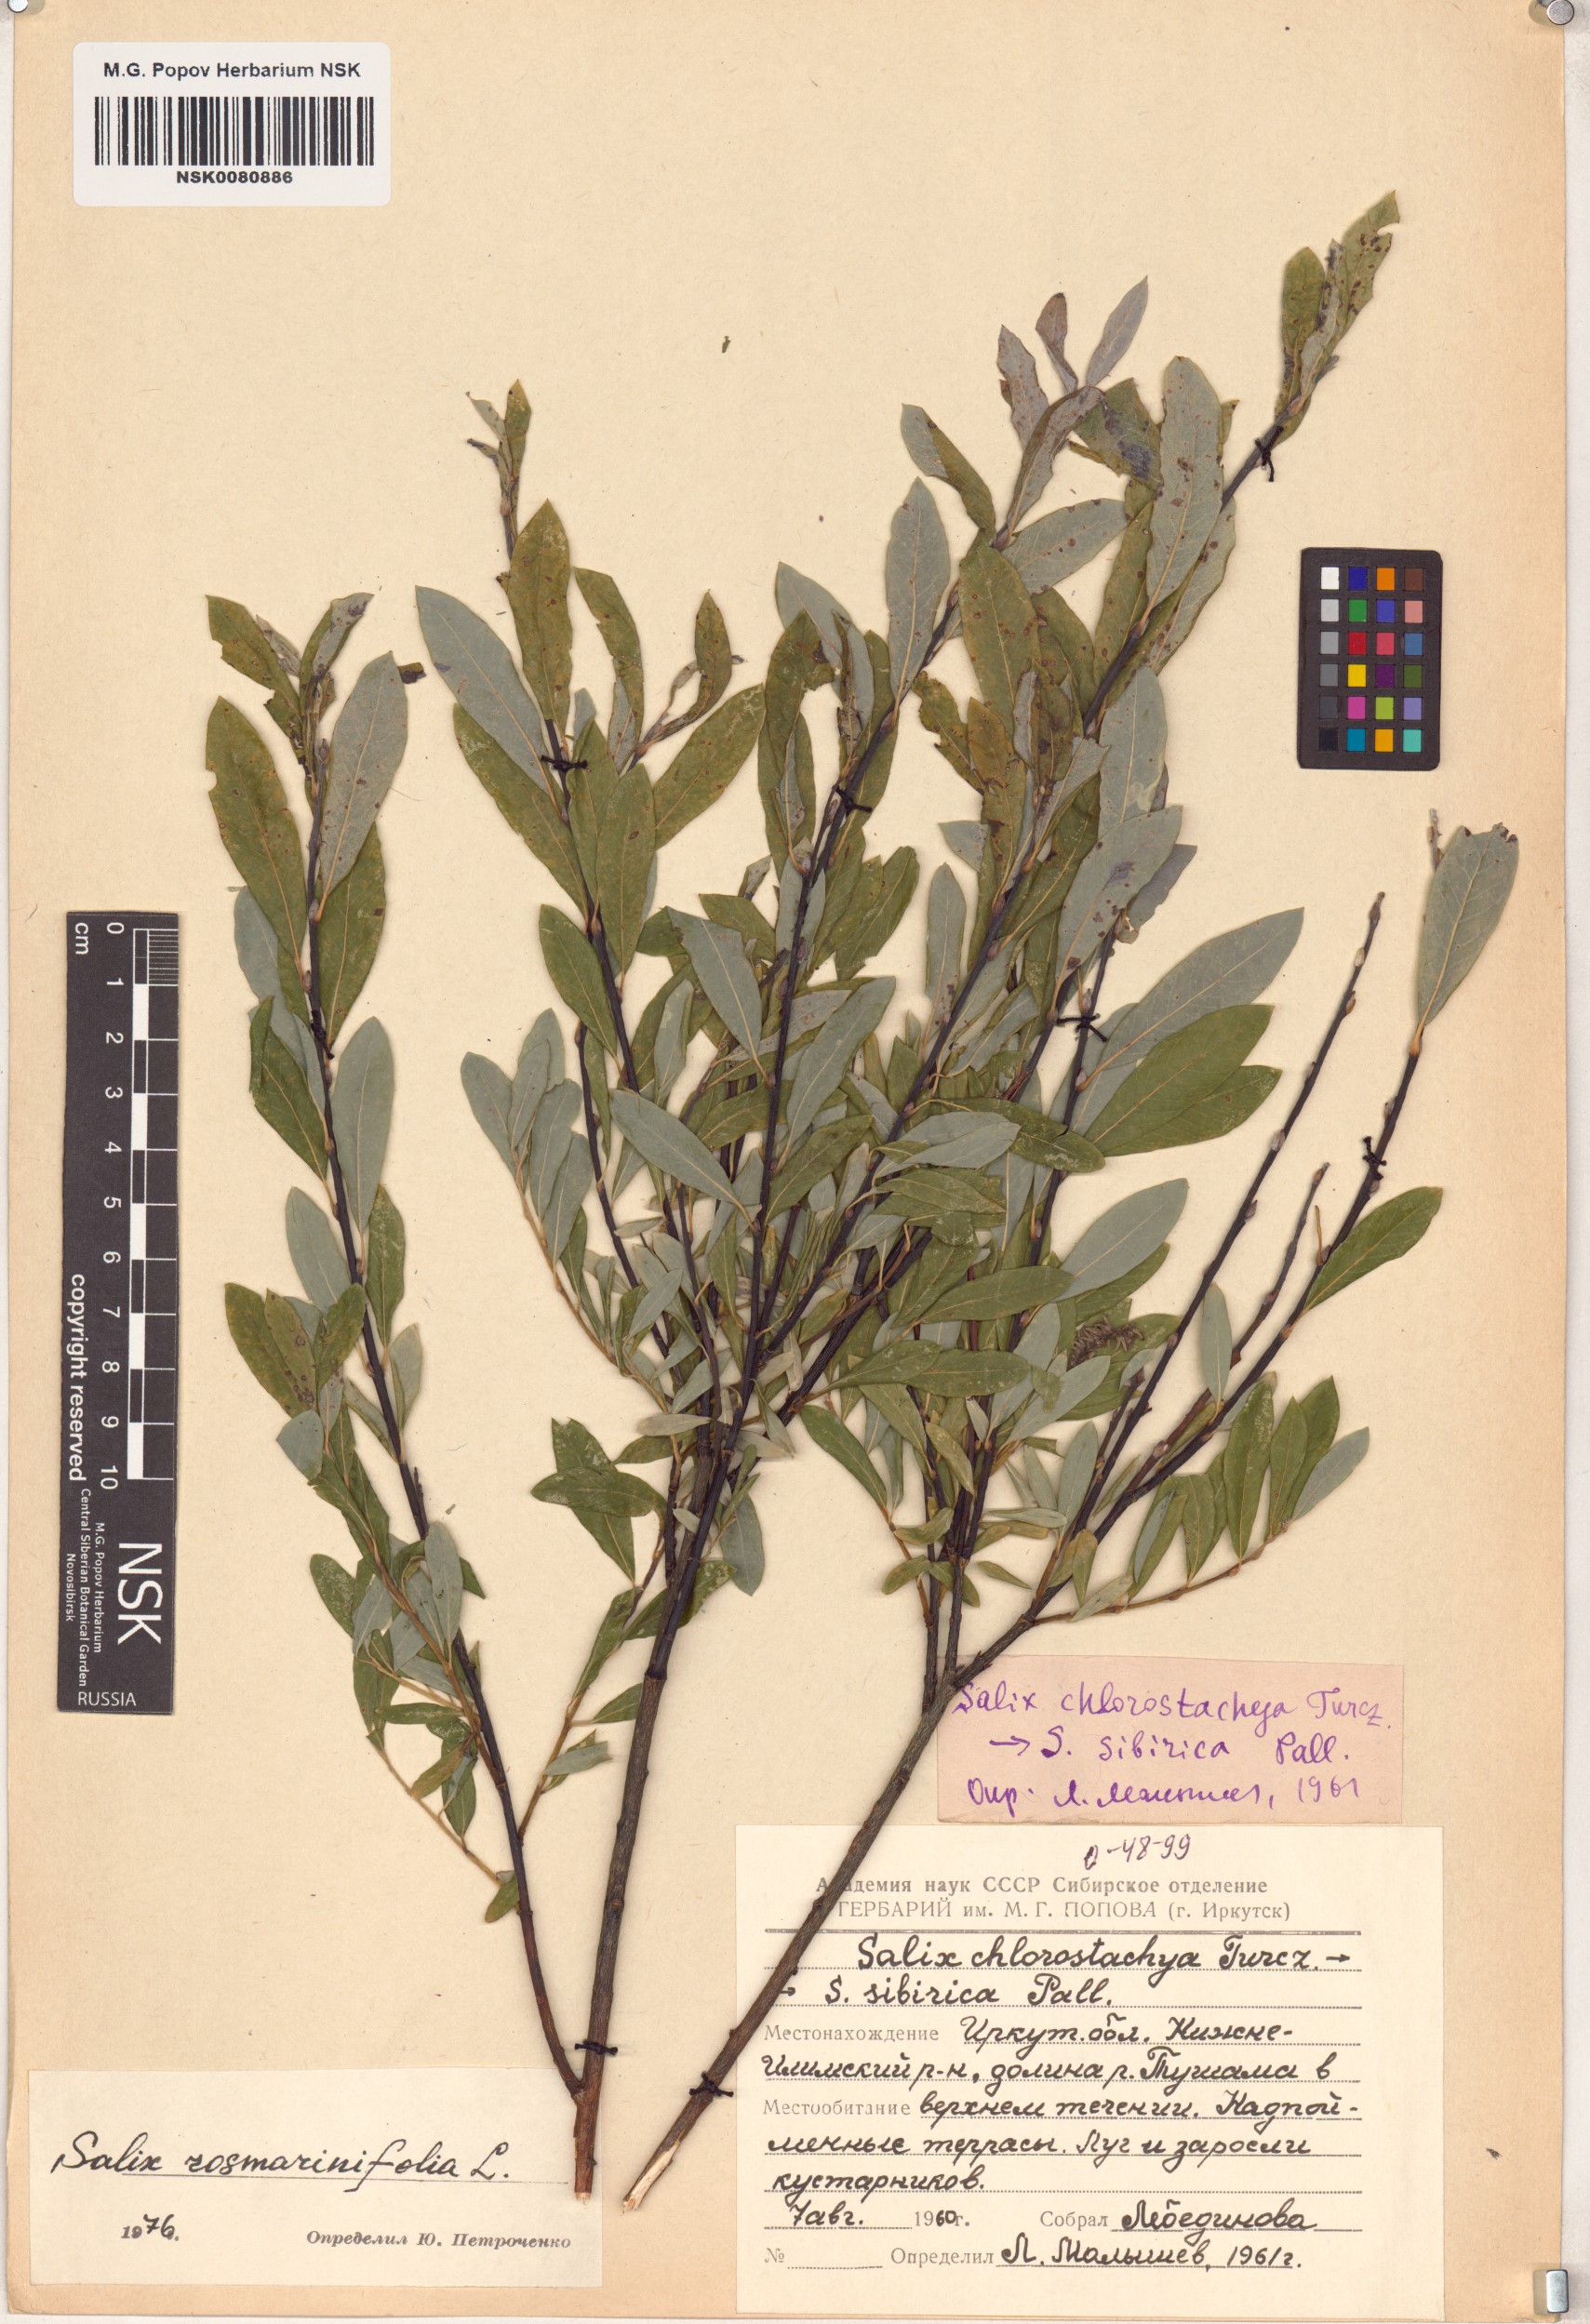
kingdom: Plantae
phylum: Tracheophyta
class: Magnoliopsida
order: Malpighiales
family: Salicaceae
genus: Salix
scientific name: Salix rosmarinifolia
